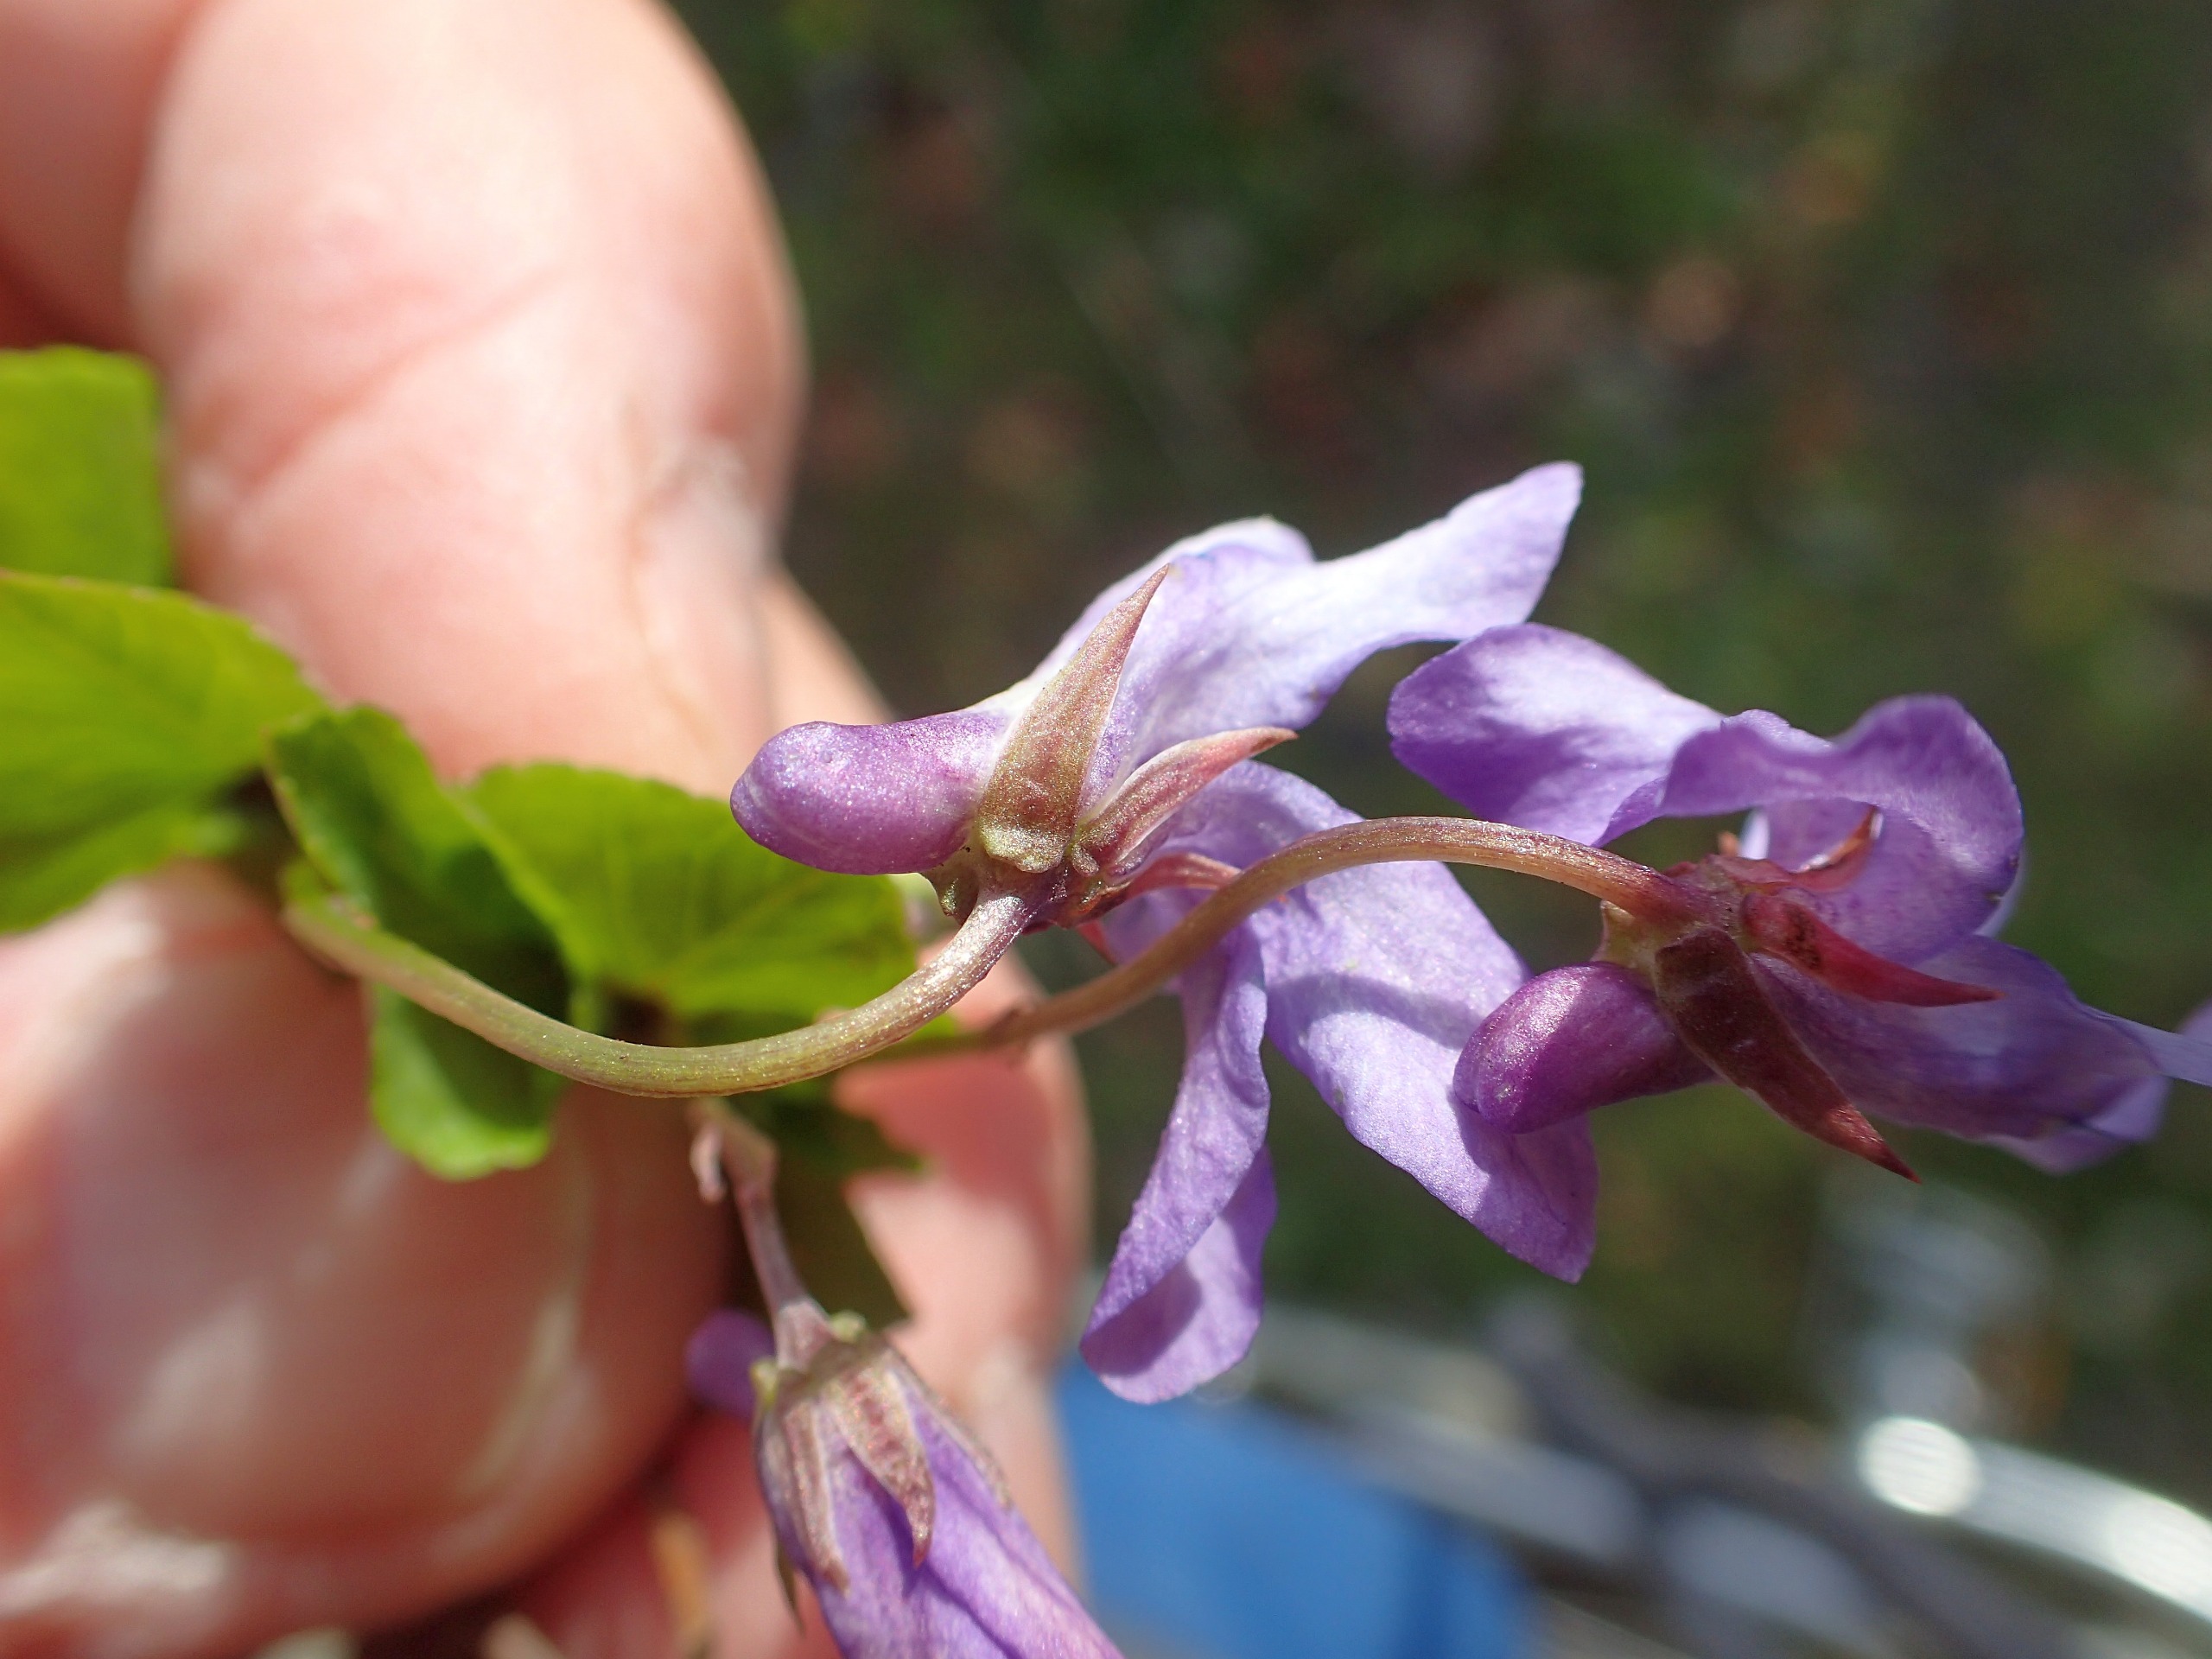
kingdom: Plantae
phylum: Tracheophyta
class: Magnoliopsida
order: Malpighiales
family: Violaceae
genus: Viola
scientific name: Viola reichenbachiana
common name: Skov-viol
